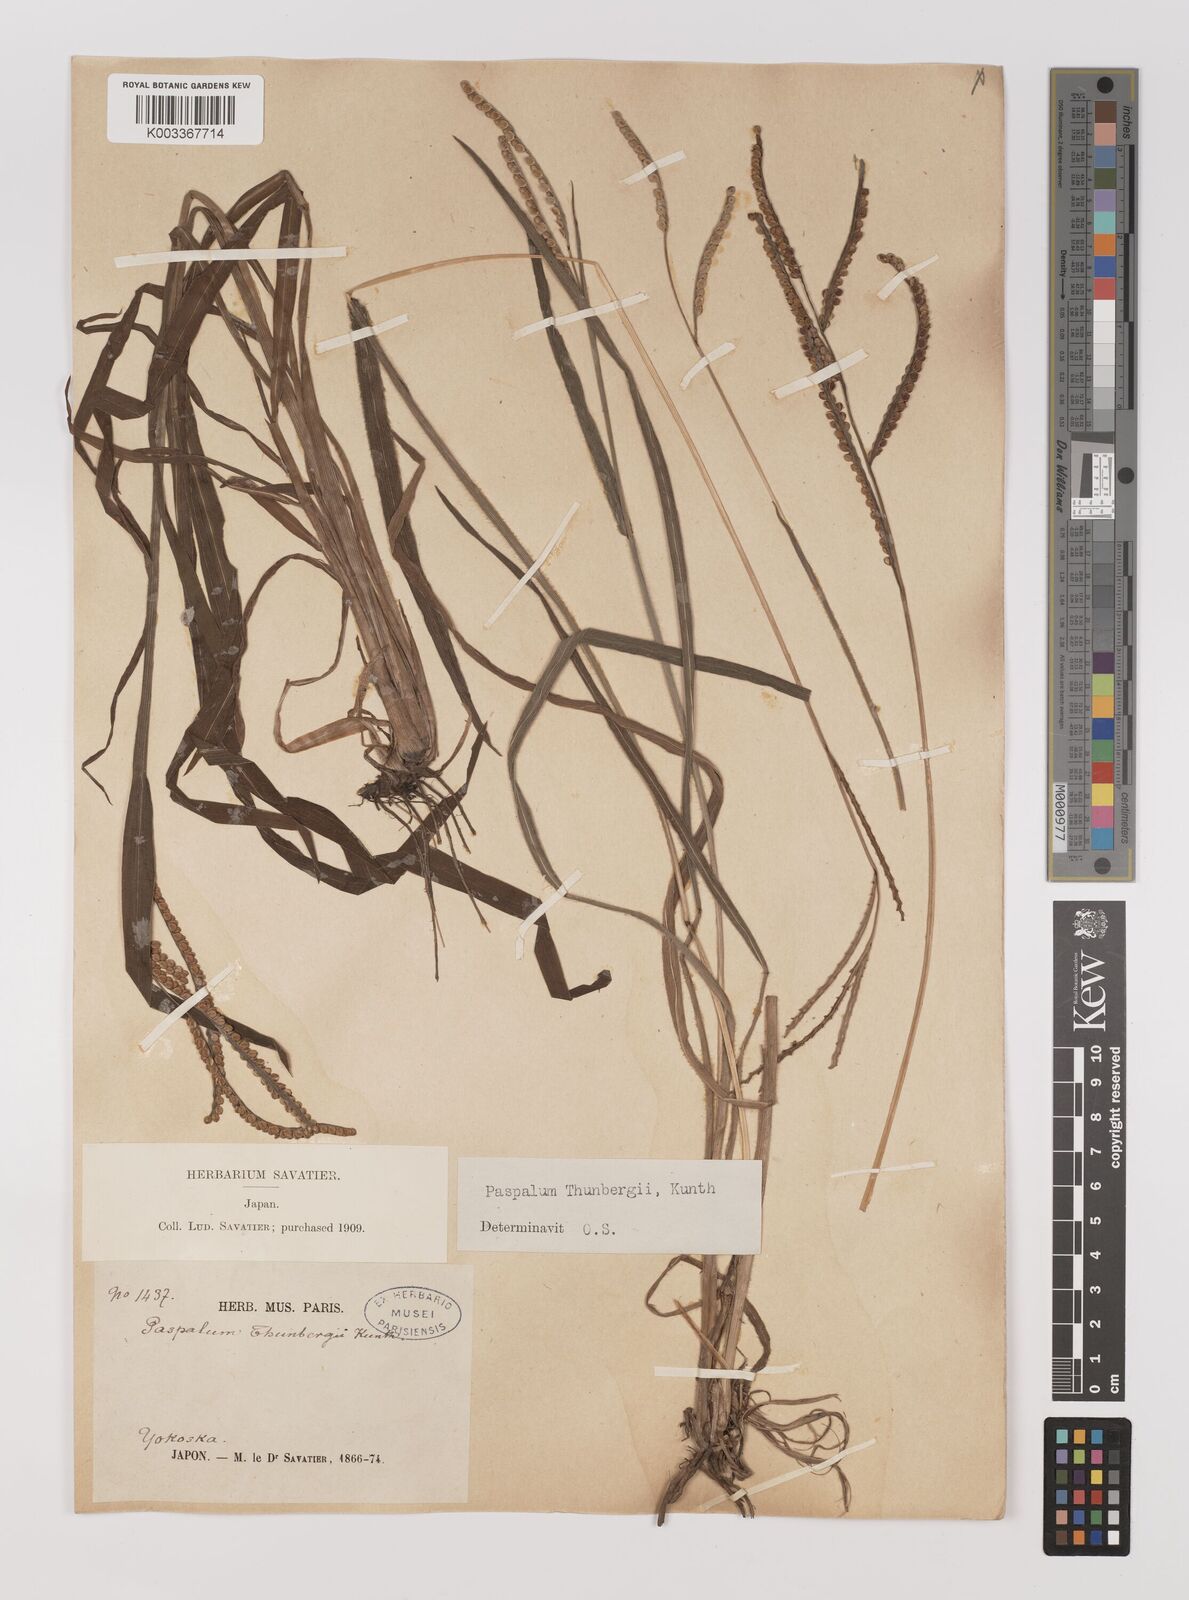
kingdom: Plantae
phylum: Tracheophyta
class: Liliopsida
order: Poales
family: Poaceae
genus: Panicum
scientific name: Panicum
